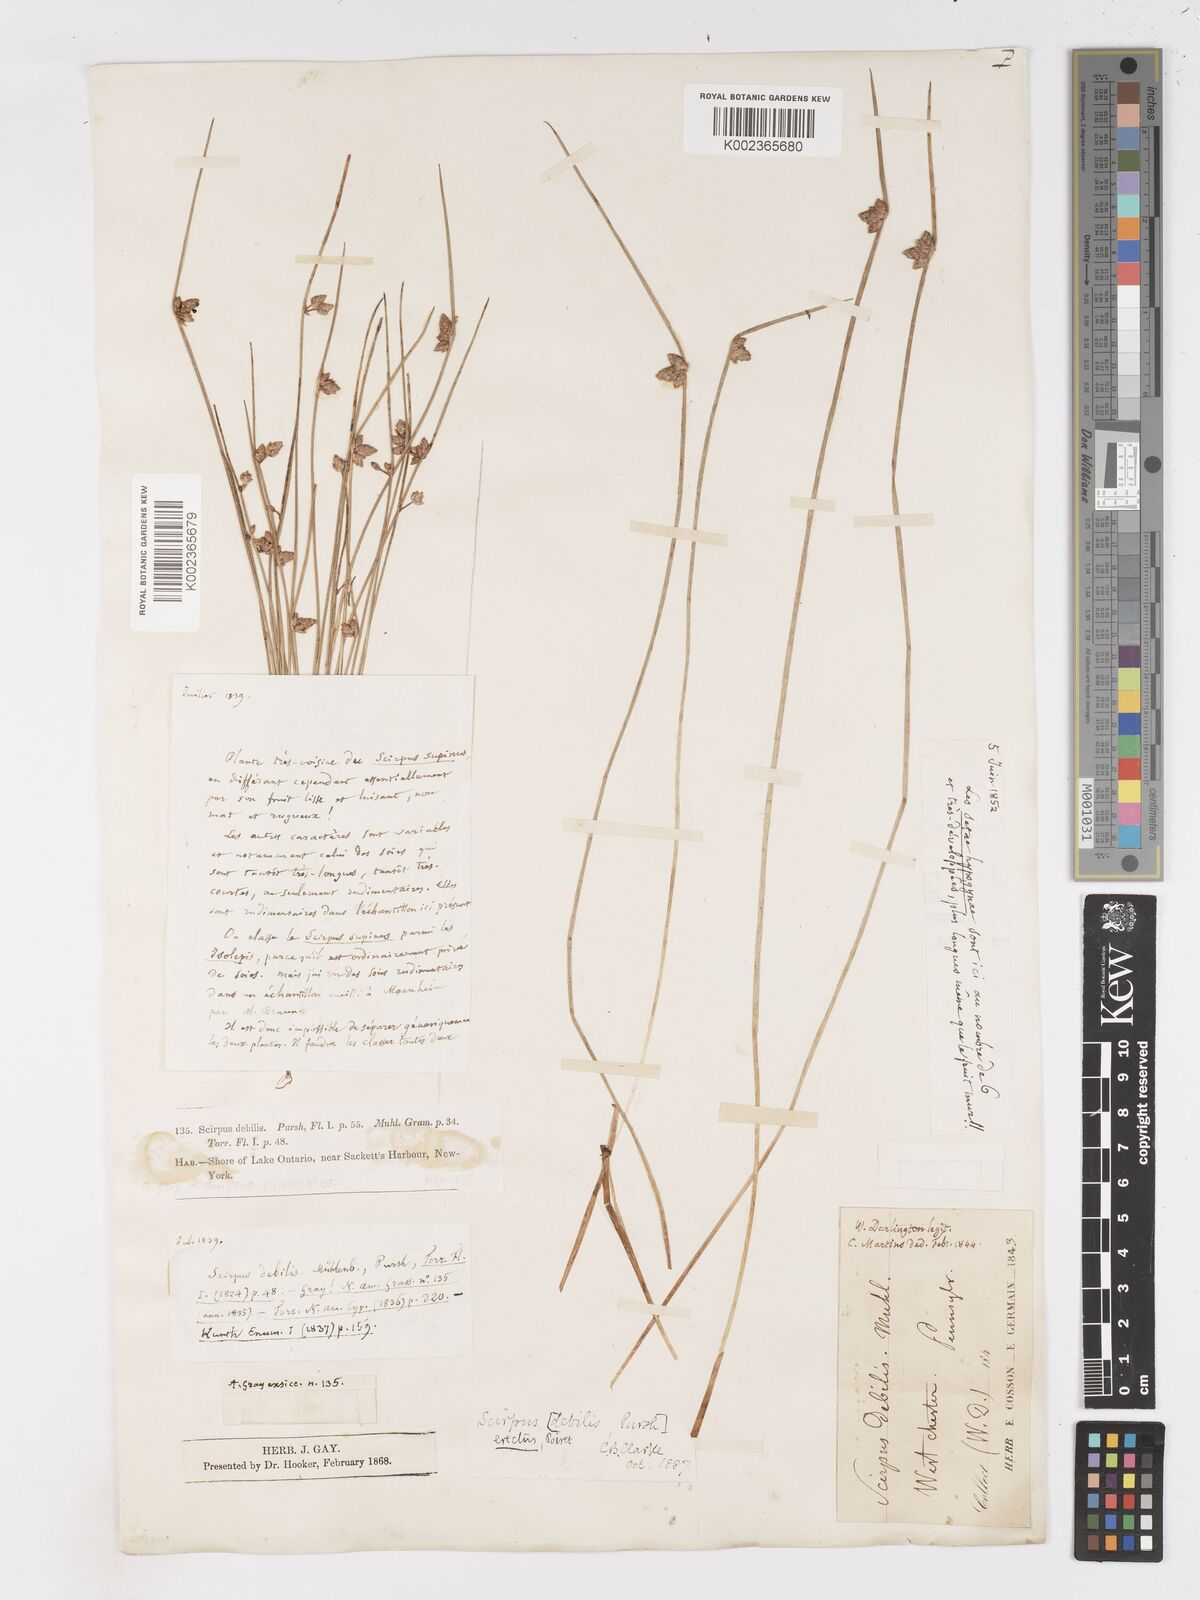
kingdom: Plantae
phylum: Tracheophyta
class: Liliopsida
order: Poales
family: Cyperaceae
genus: Schoenoplectiella
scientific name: Schoenoplectiella purshiana
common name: Weak-stalked bulrush
